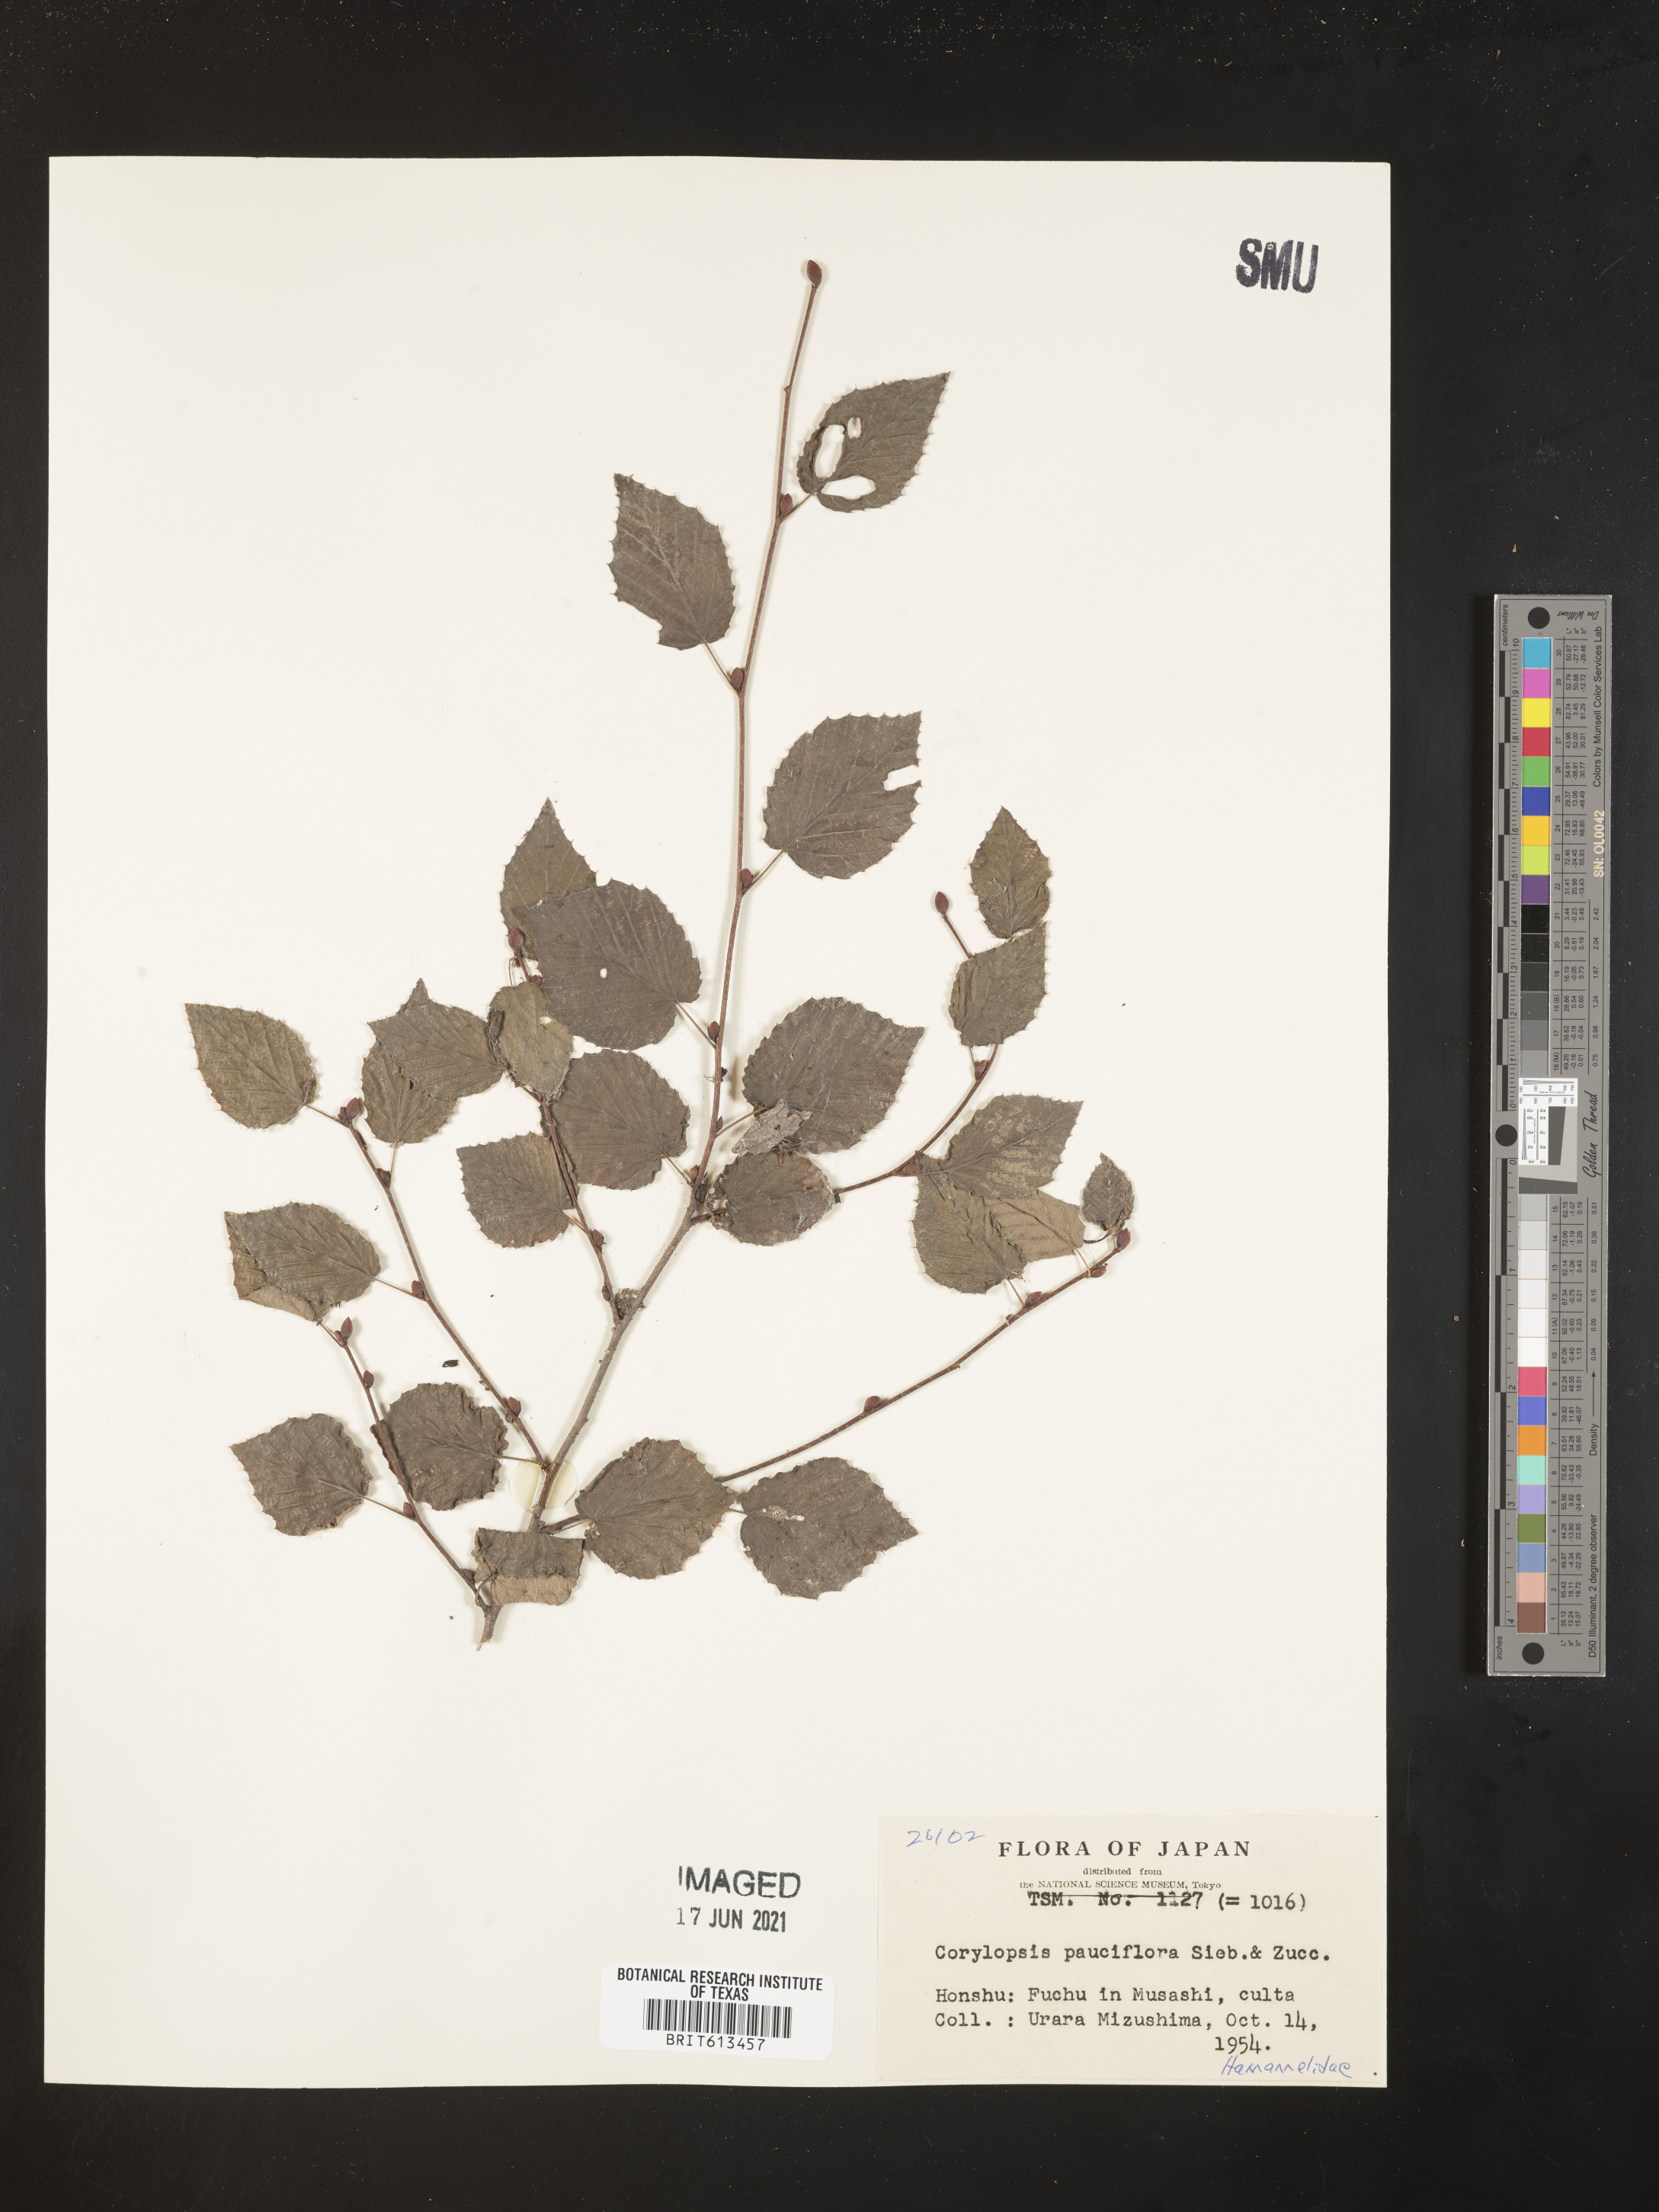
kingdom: Plantae
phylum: Tracheophyta
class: Magnoliopsida
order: Saxifragales
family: Hamamelidaceae
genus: Corylopsis
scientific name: Corylopsis pauciflora
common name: Buttercup winter-hazel
